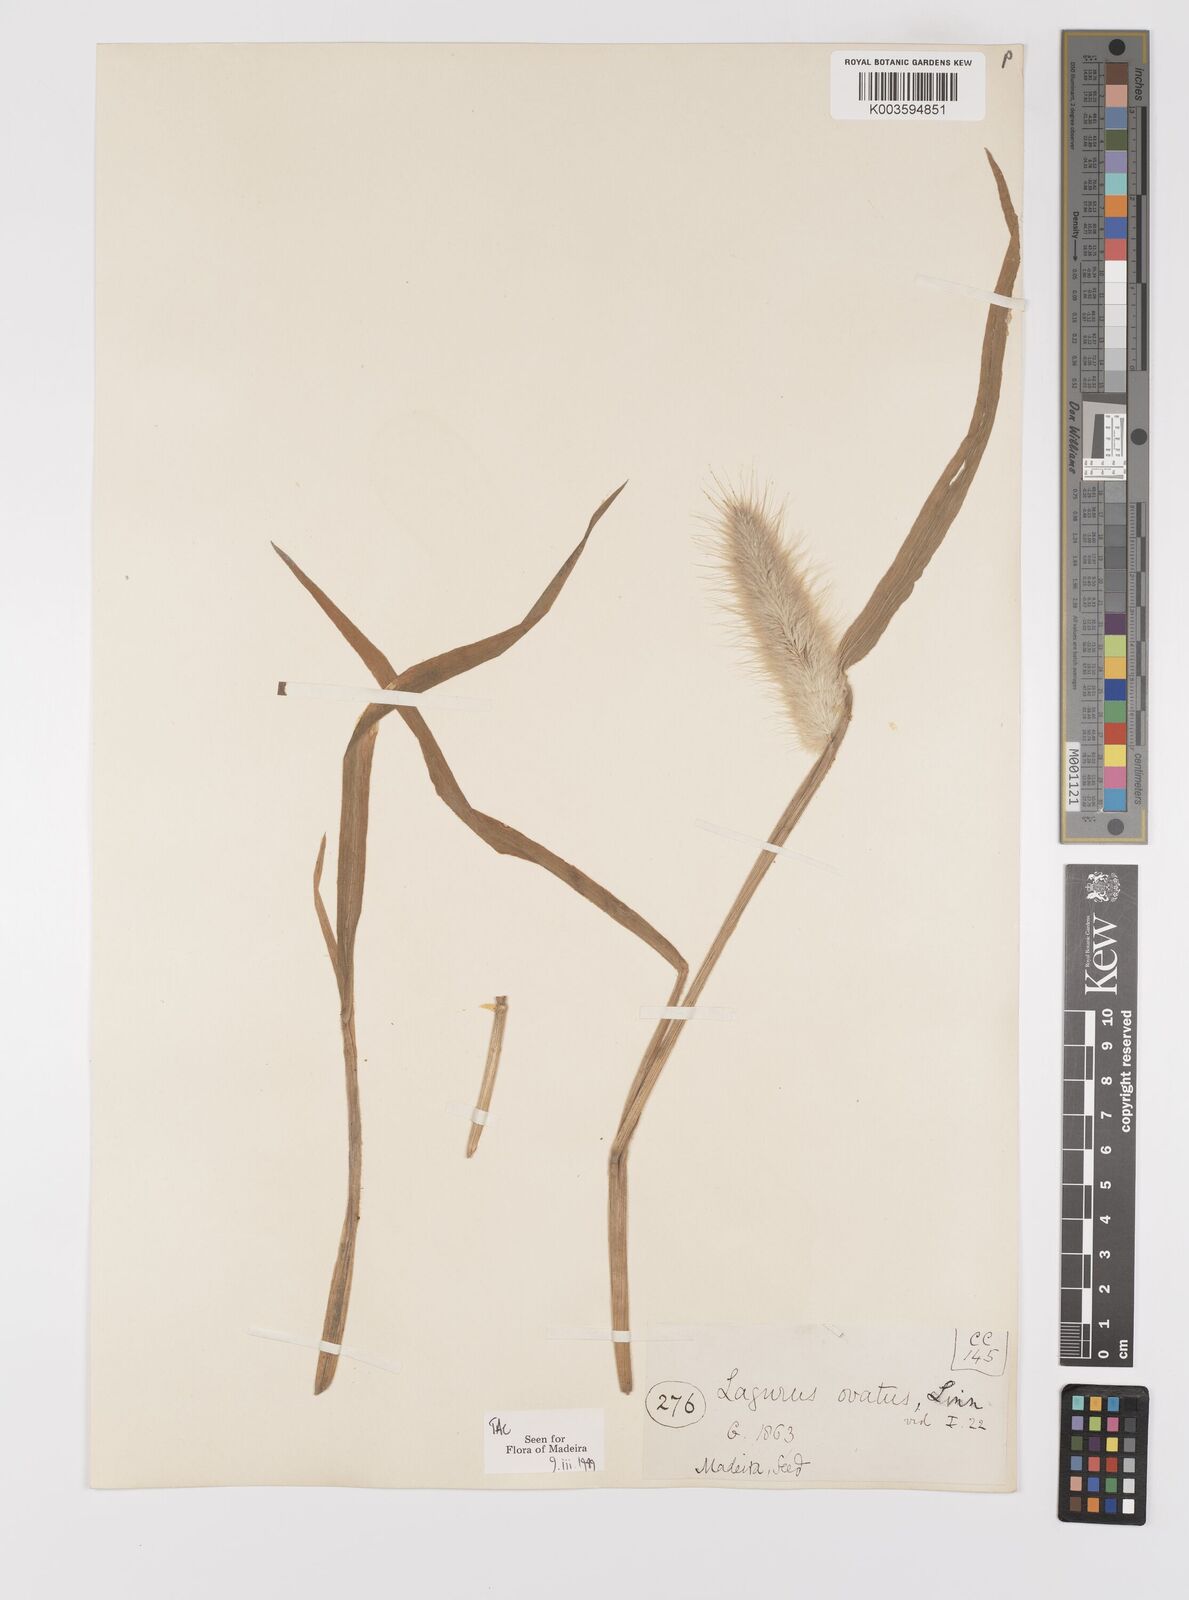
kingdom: Plantae
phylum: Tracheophyta
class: Liliopsida
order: Poales
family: Poaceae
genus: Lagurus
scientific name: Lagurus ovatus
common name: Hare's-tail
